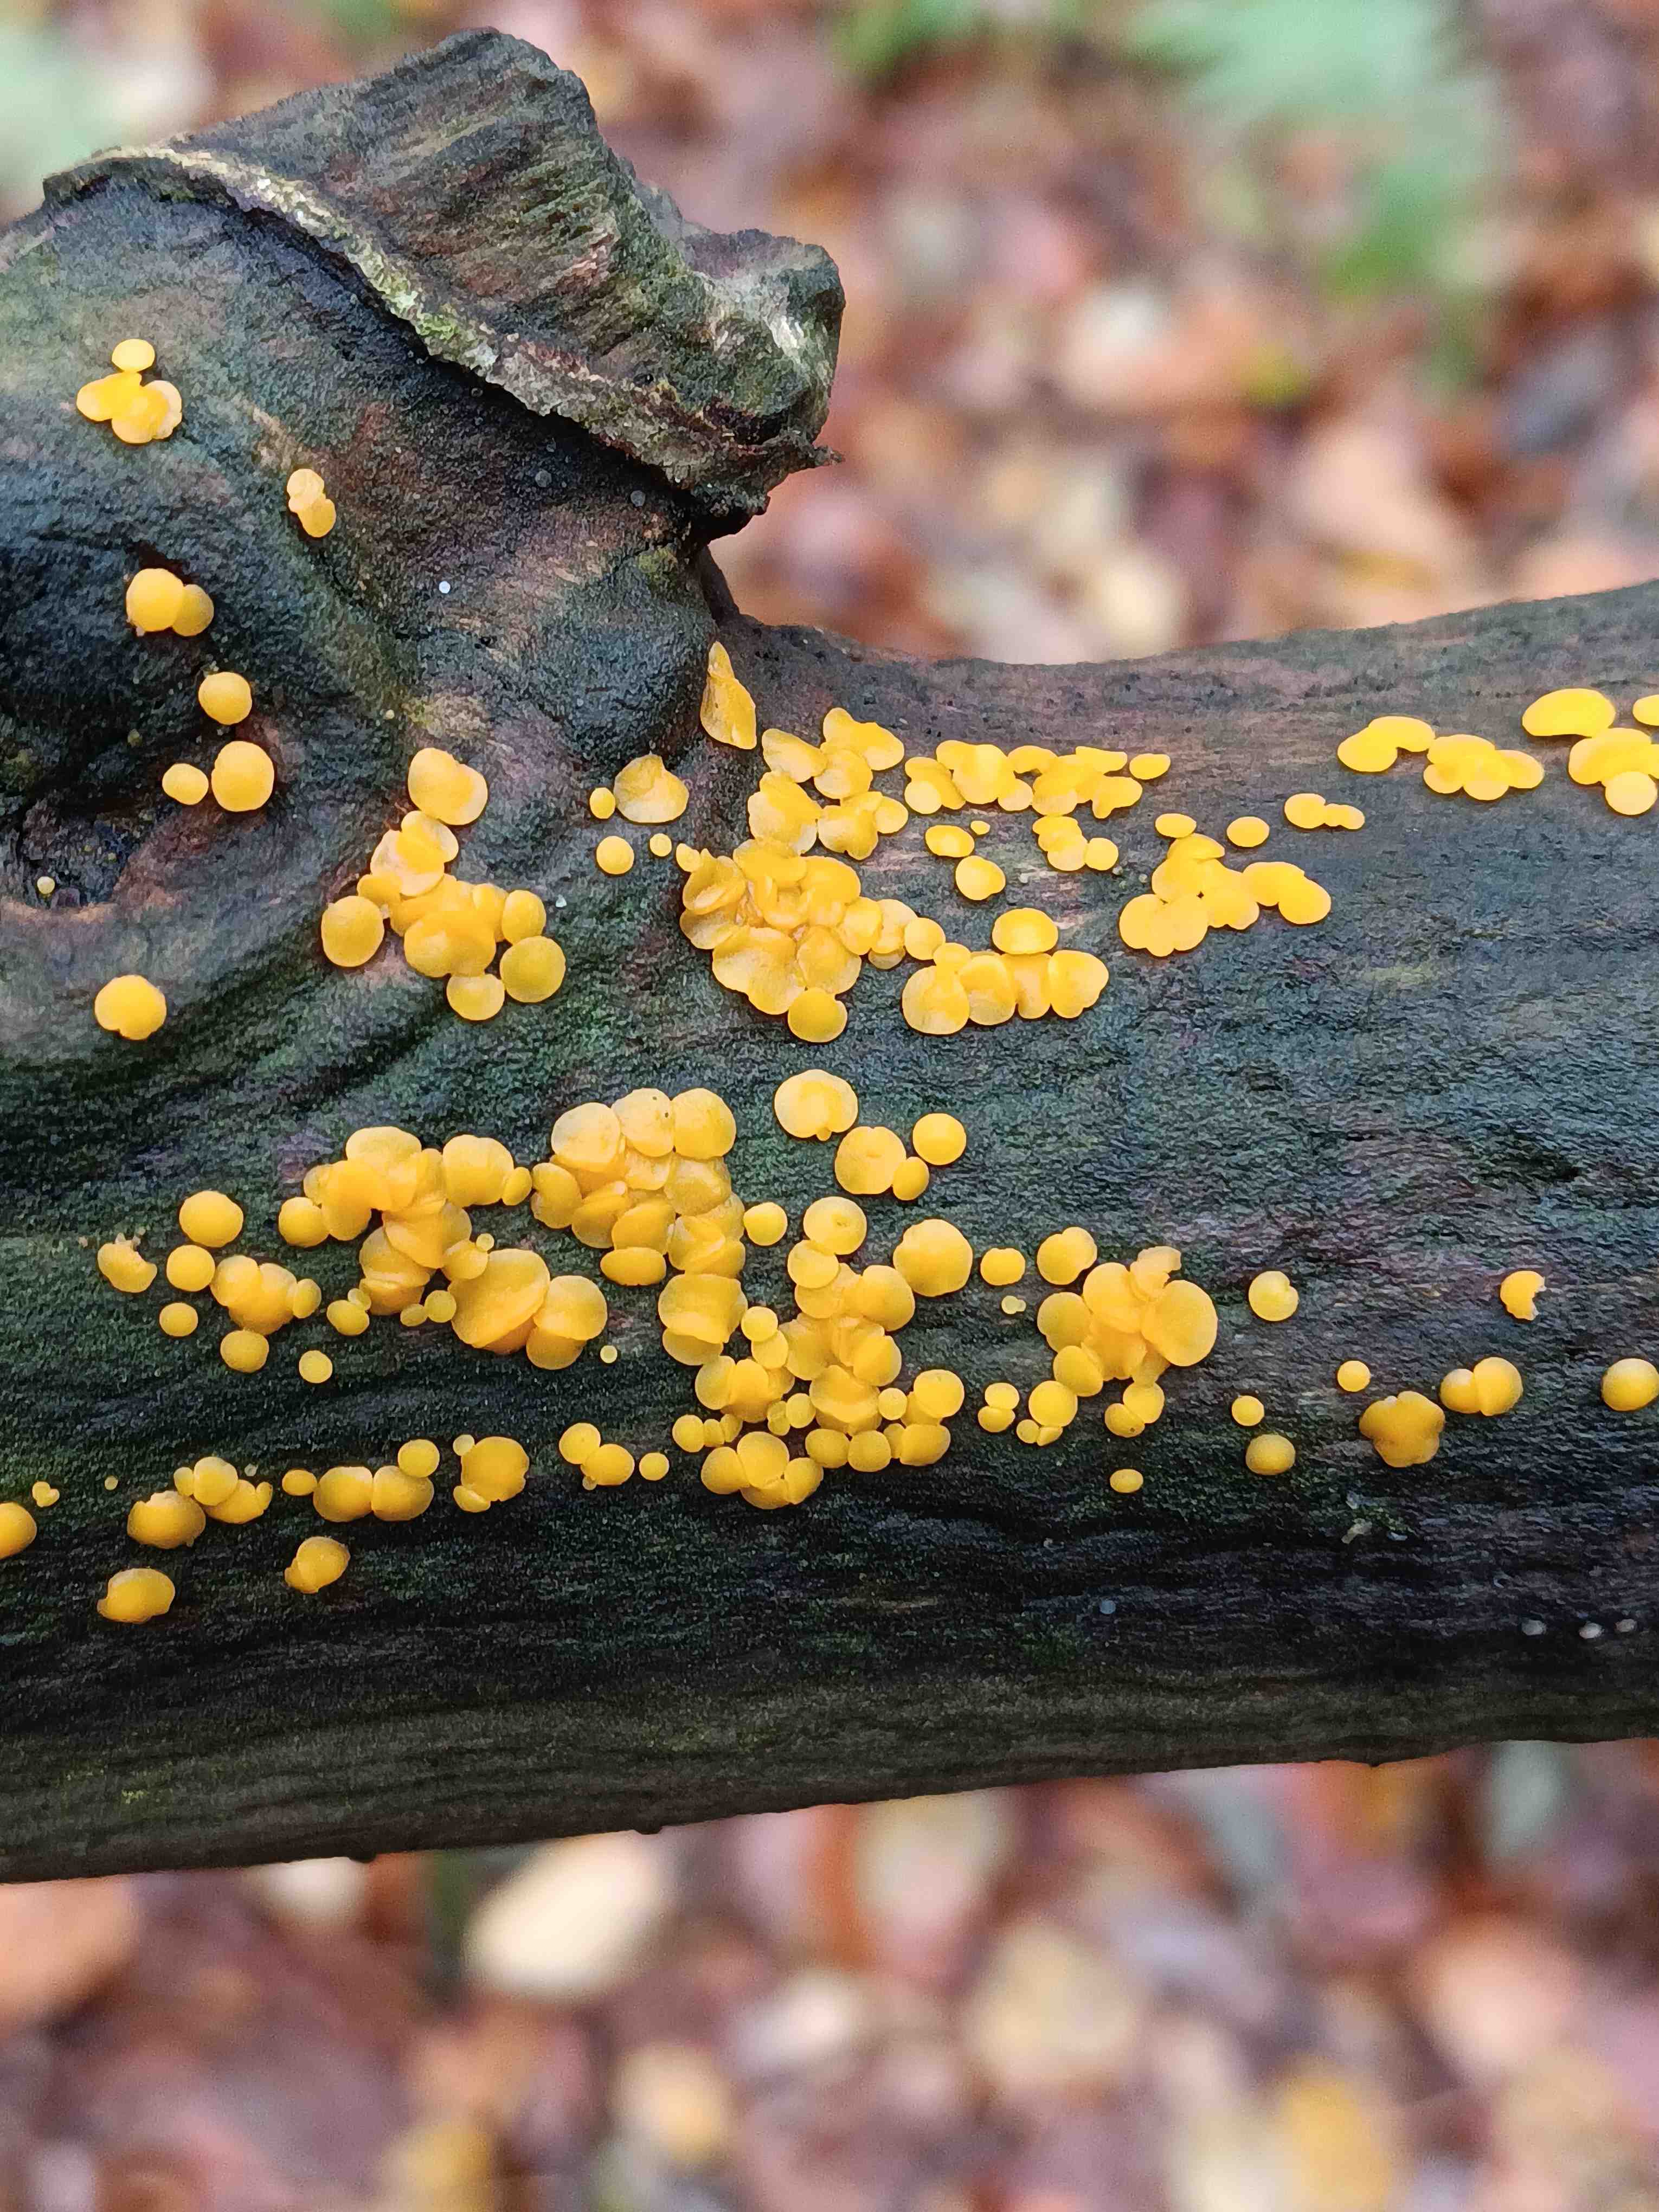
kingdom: Fungi
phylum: Ascomycota
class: Leotiomycetes
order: Helotiales
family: Pezizellaceae
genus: Calycina
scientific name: Calycina citrina
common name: almindelig gulskive
